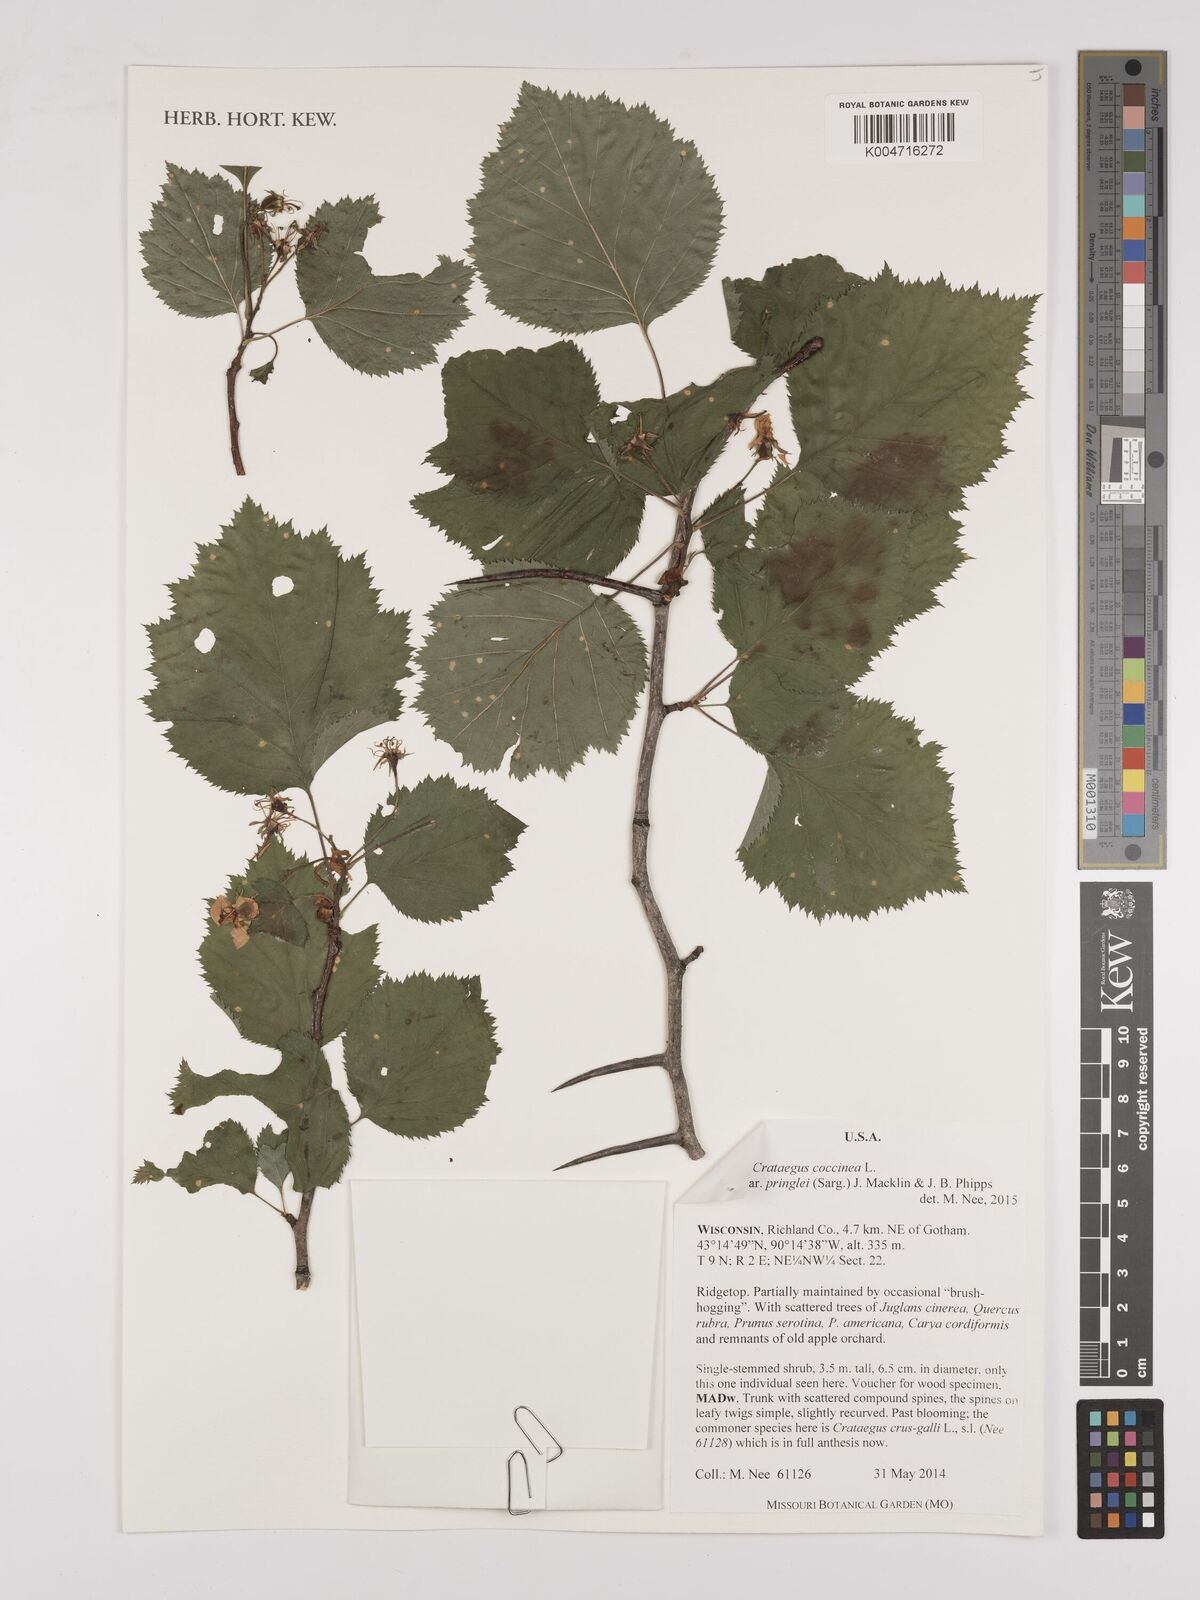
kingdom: Plantae
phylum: Tracheophyta
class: Magnoliopsida
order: Rosales
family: Rosaceae
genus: Crataegus
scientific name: Crataegus laevigata
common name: Midland hawthorn
